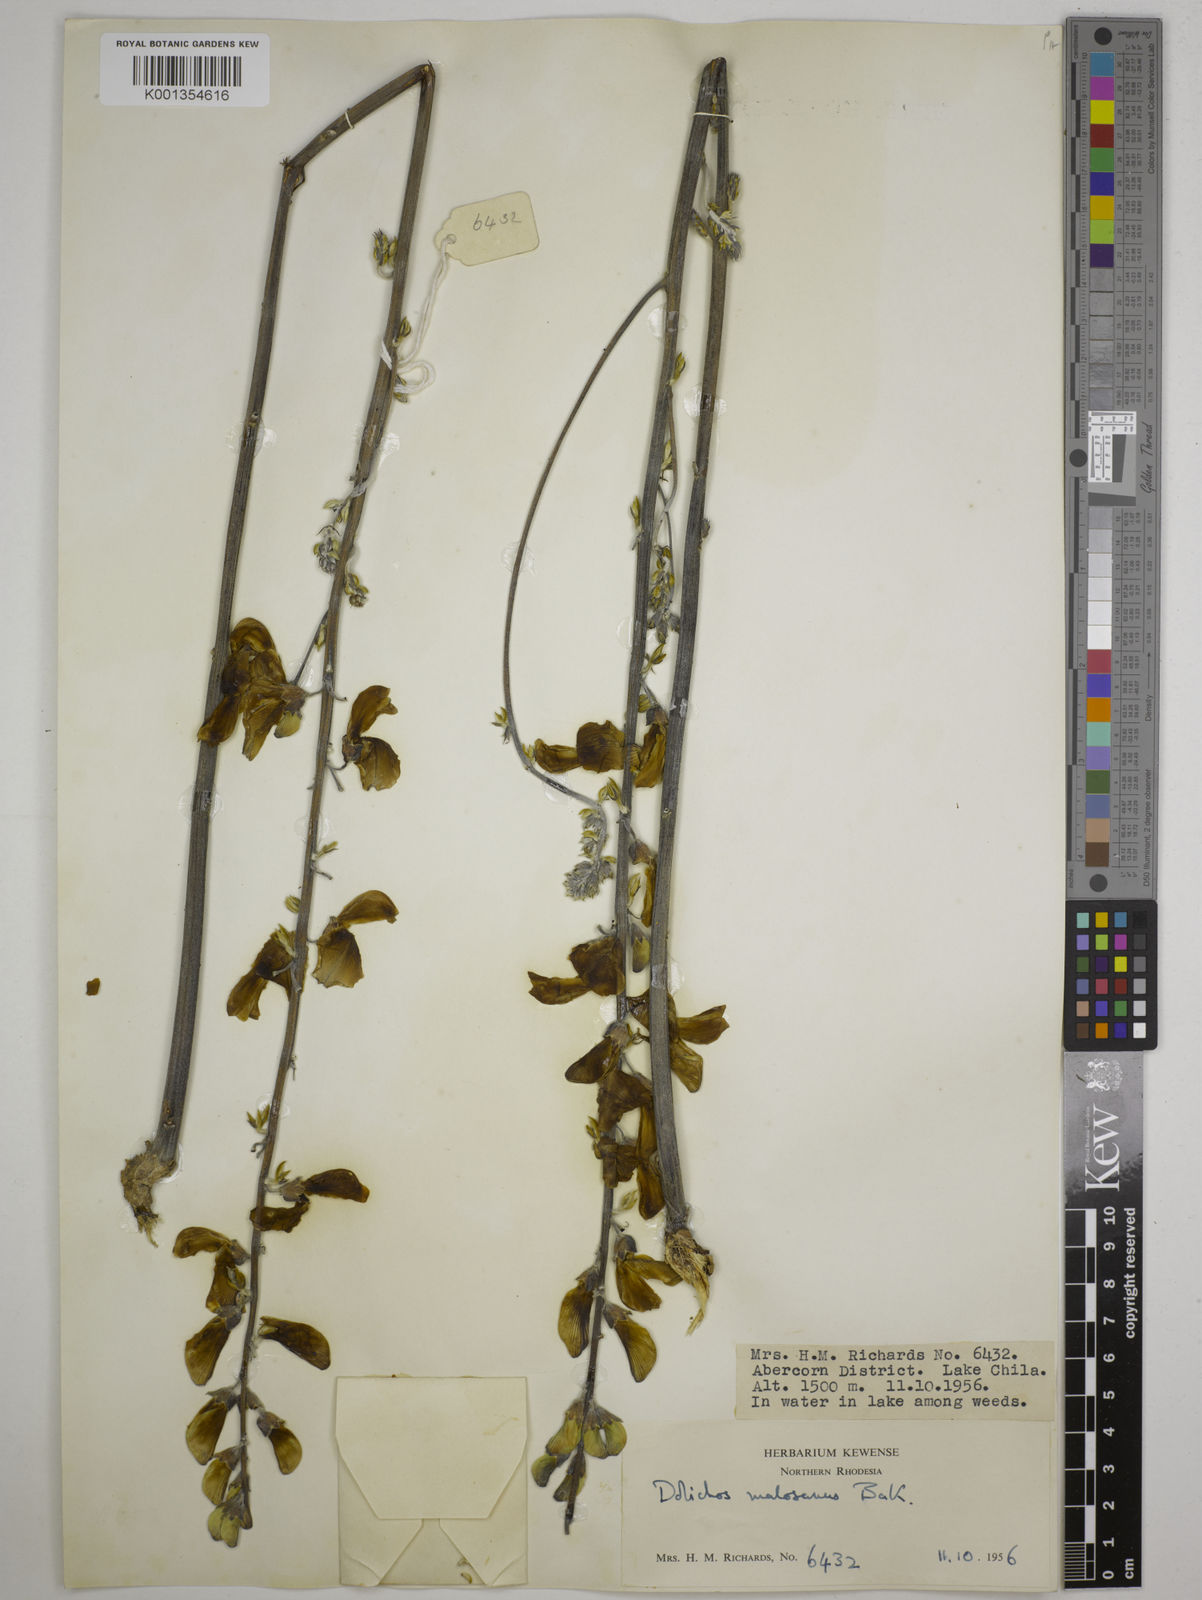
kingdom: Plantae
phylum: Tracheophyta
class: Magnoliopsida
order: Fabales
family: Fabaceae
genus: Dolichos
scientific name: Dolichos kilimandscharicus
